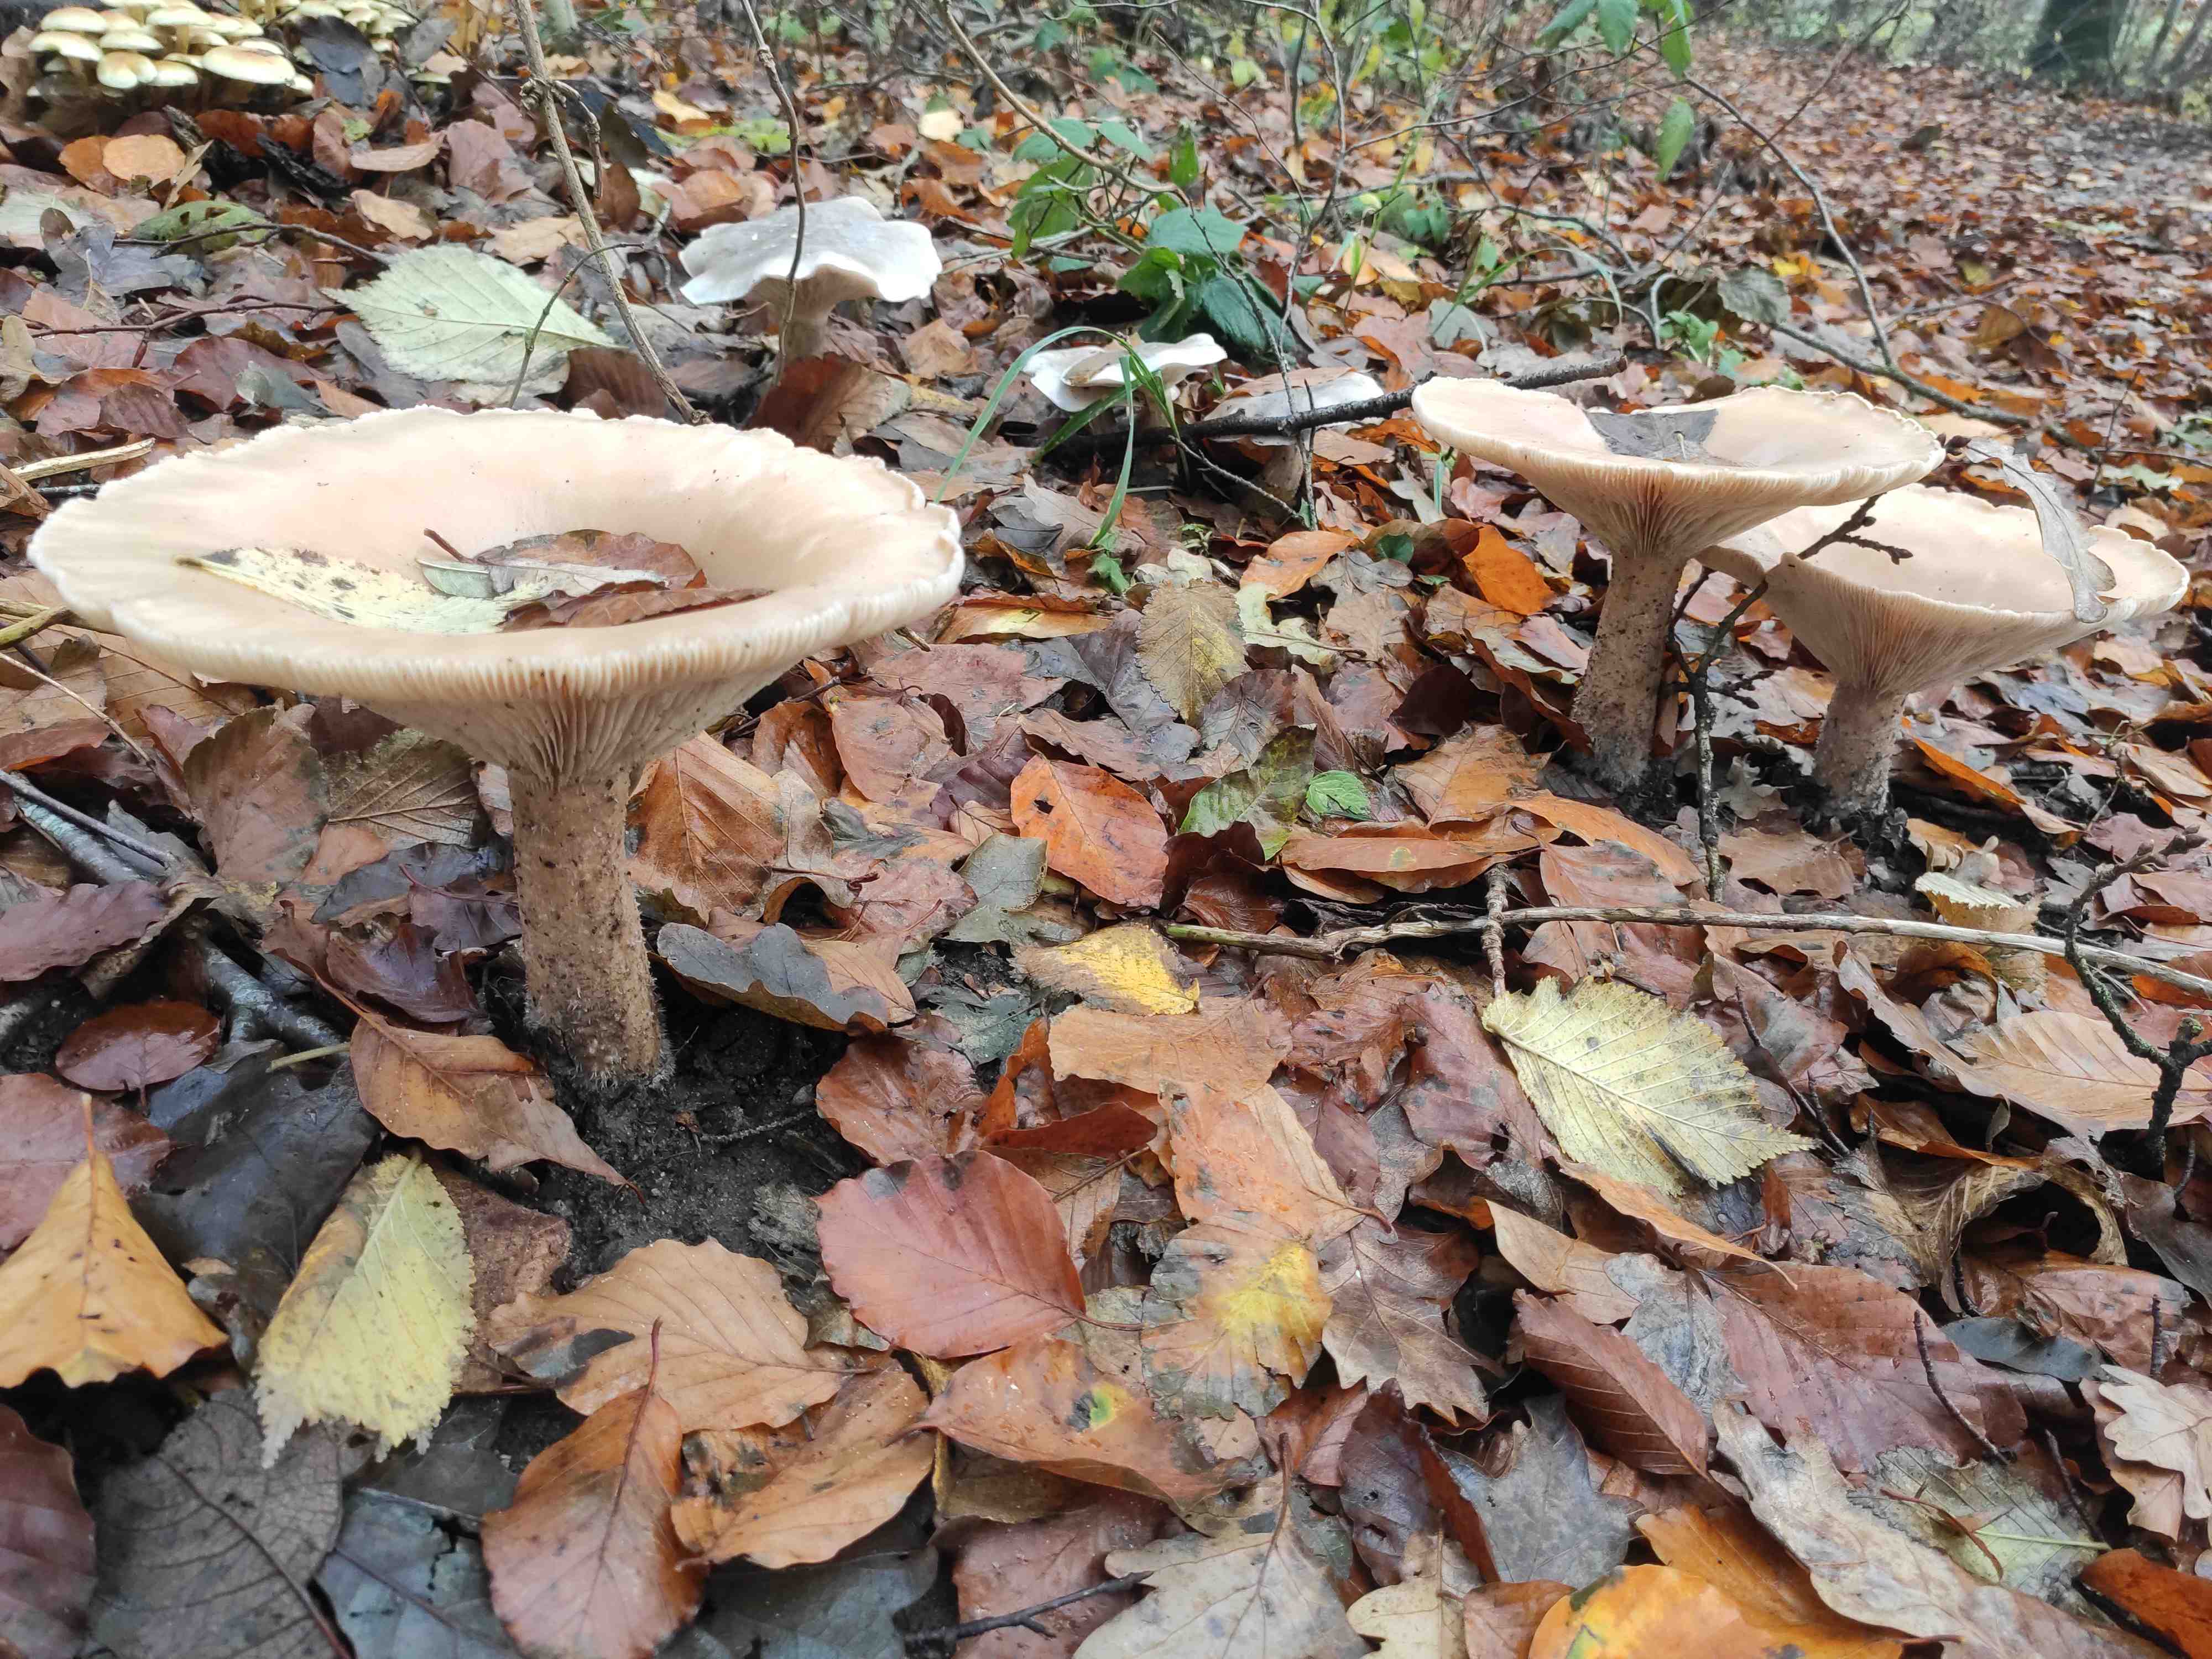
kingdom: Fungi
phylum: Basidiomycota
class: Agaricomycetes
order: Agaricales
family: Tricholomataceae
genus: Infundibulicybe
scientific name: Infundibulicybe geotropa
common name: stor tragthat
